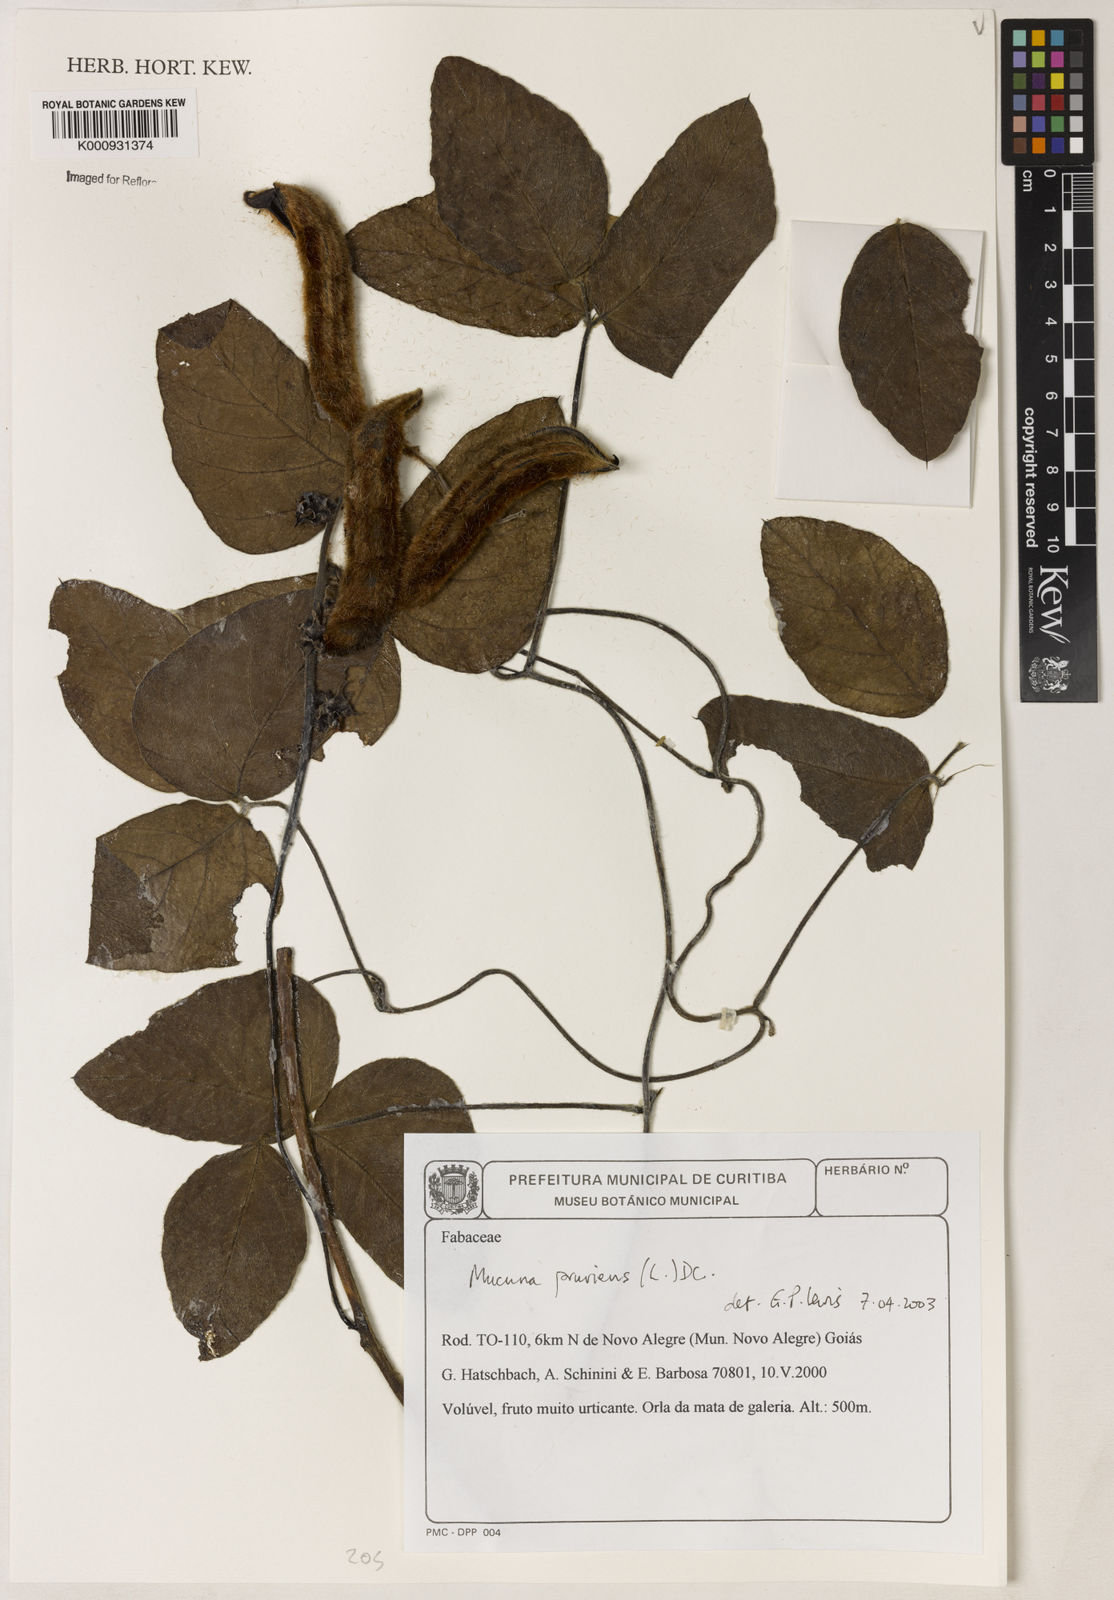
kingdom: Plantae
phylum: Tracheophyta
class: Magnoliopsida
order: Fabales
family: Fabaceae
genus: Mucuna
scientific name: Mucuna pruriens
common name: Cow-itch
